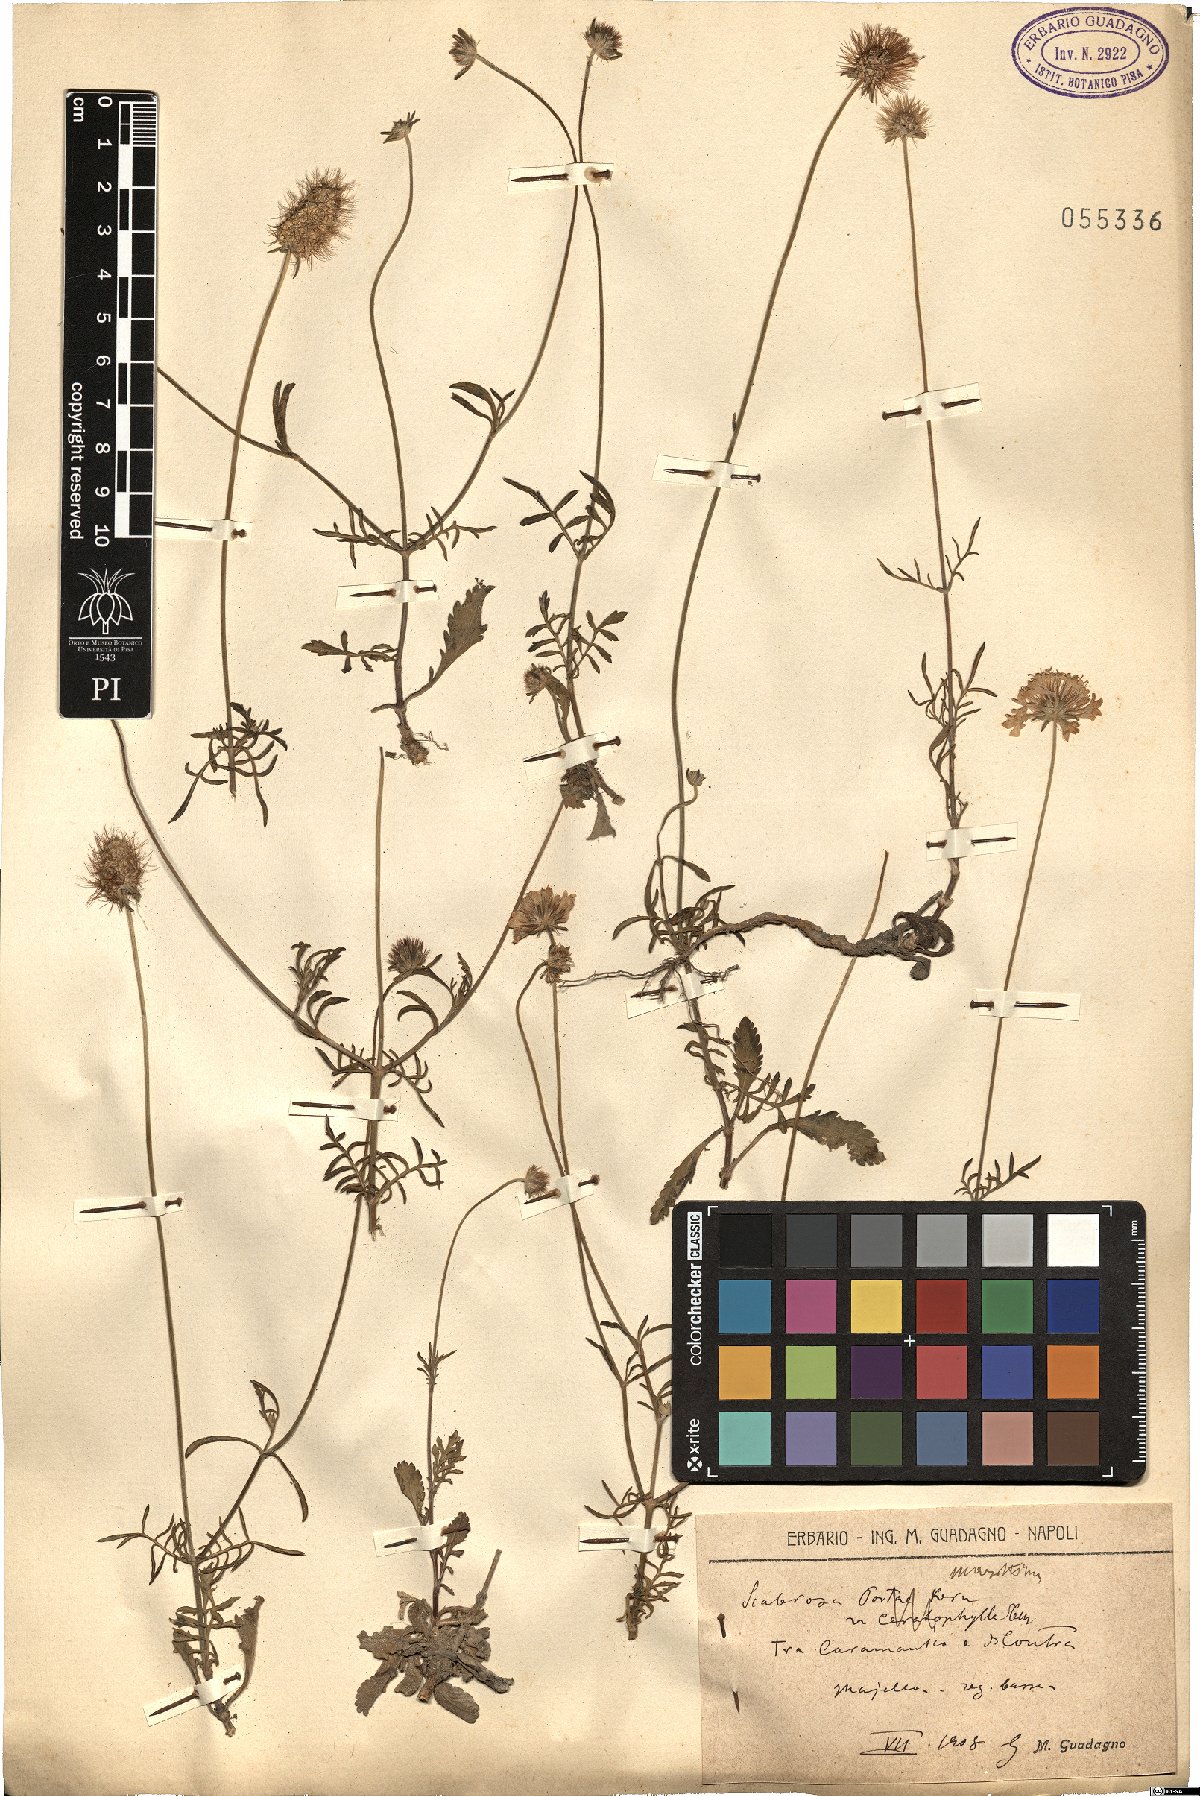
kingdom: Plantae
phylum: Tracheophyta
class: Magnoliopsida
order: Dipsacales
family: Caprifoliaceae
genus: Sixalix
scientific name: Sixalix maritima
